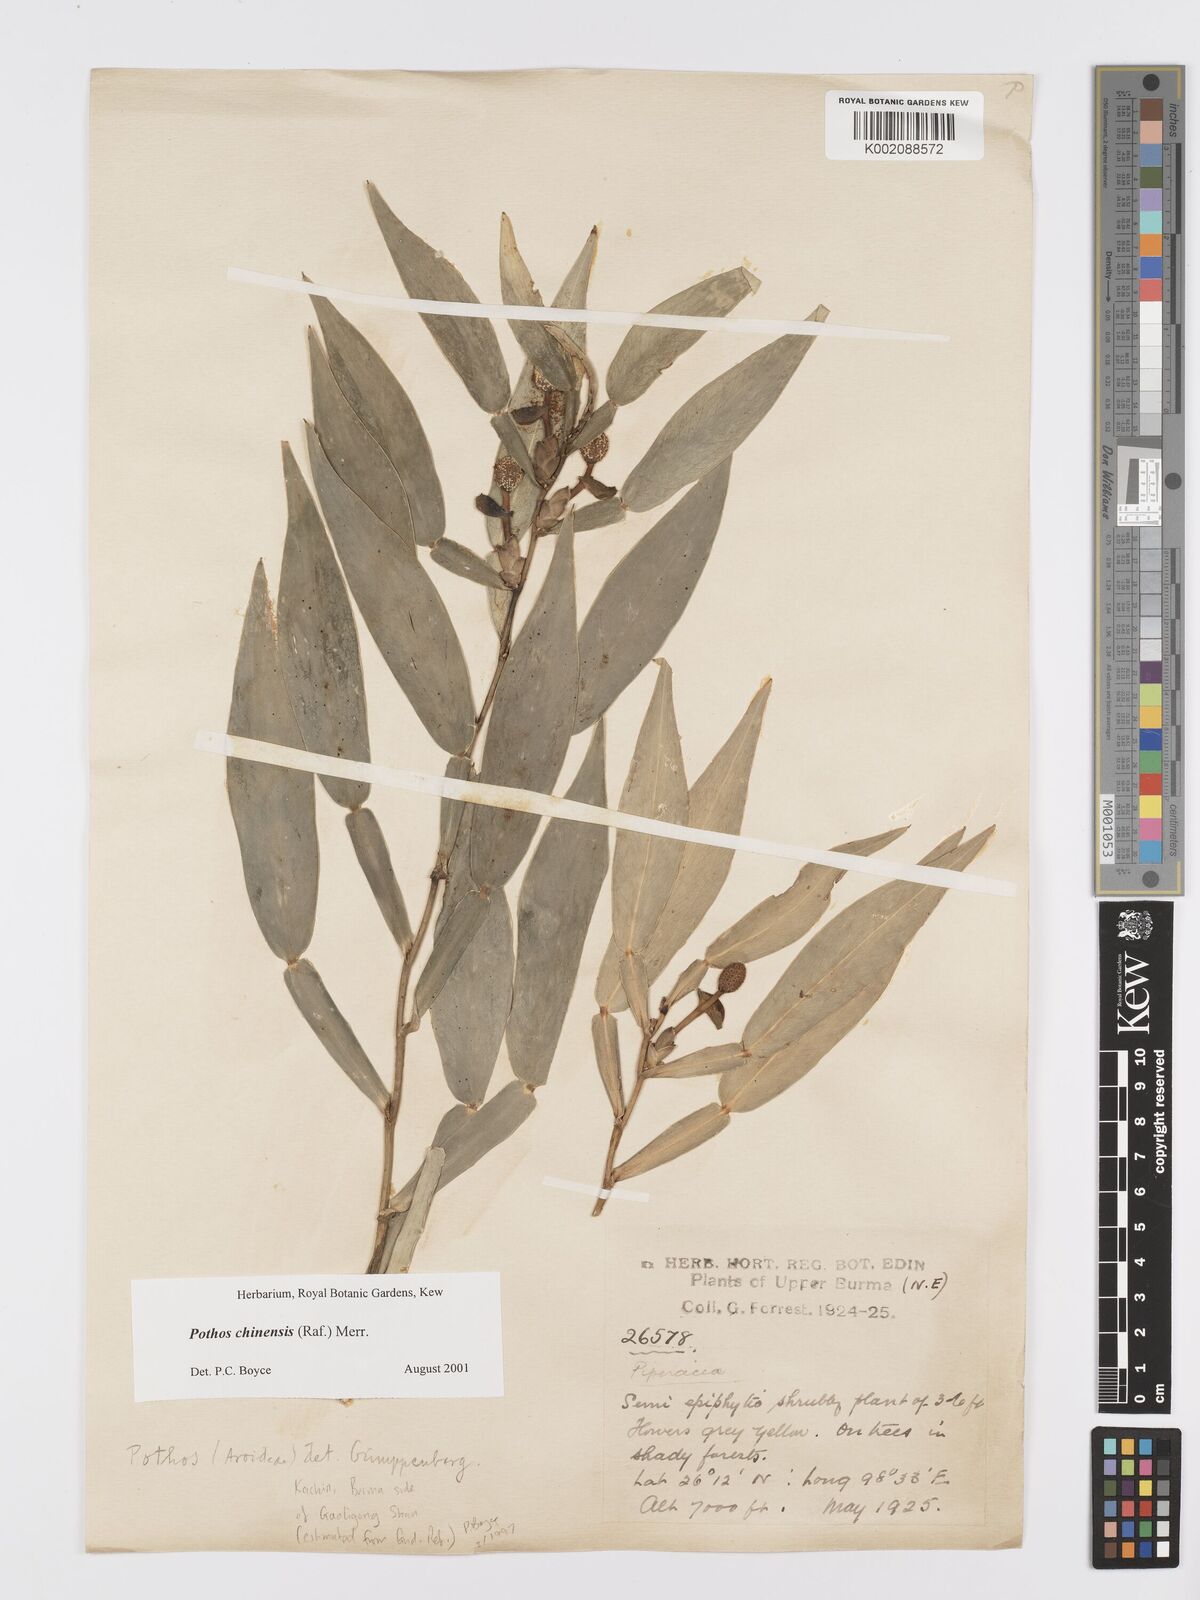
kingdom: Plantae
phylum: Tracheophyta
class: Liliopsida
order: Alismatales
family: Araceae
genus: Pothos
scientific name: Pothos chinensis
